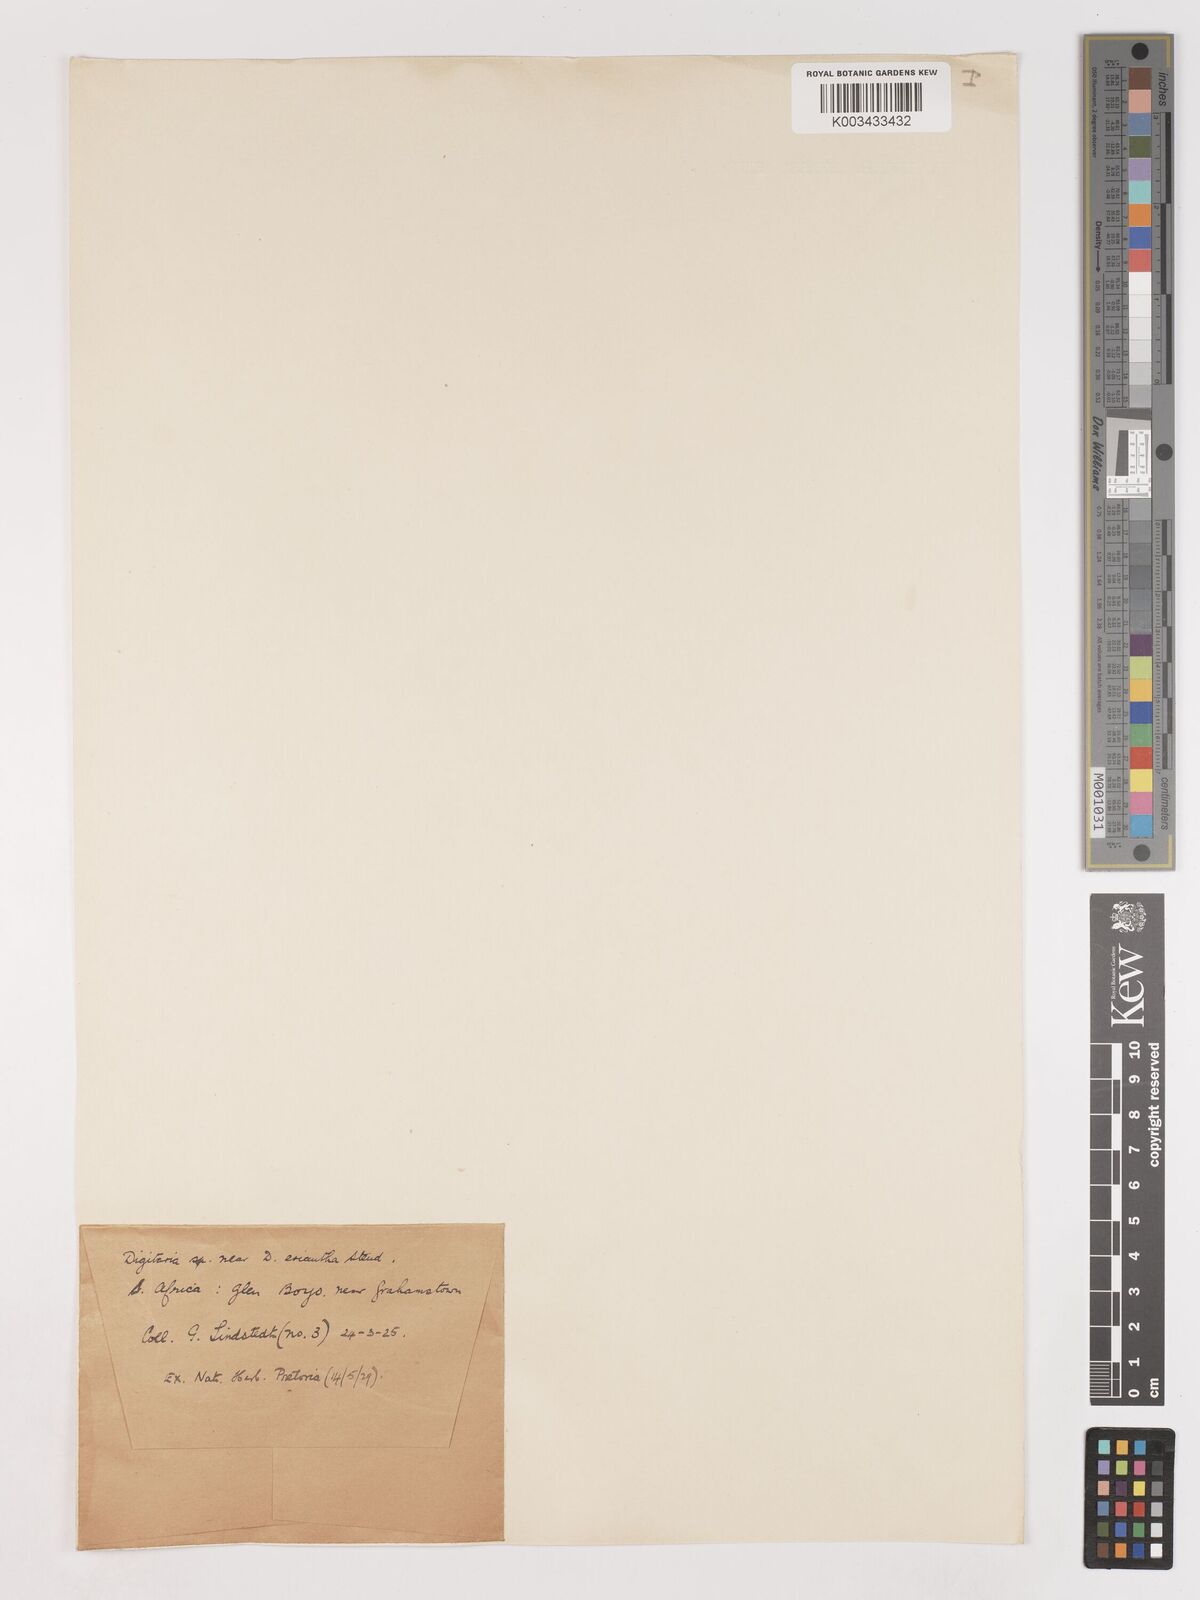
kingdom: Plantae
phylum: Tracheophyta
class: Liliopsida
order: Poales
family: Poaceae
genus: Digitaria
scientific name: Digitaria eriantha
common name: Digitgrass
